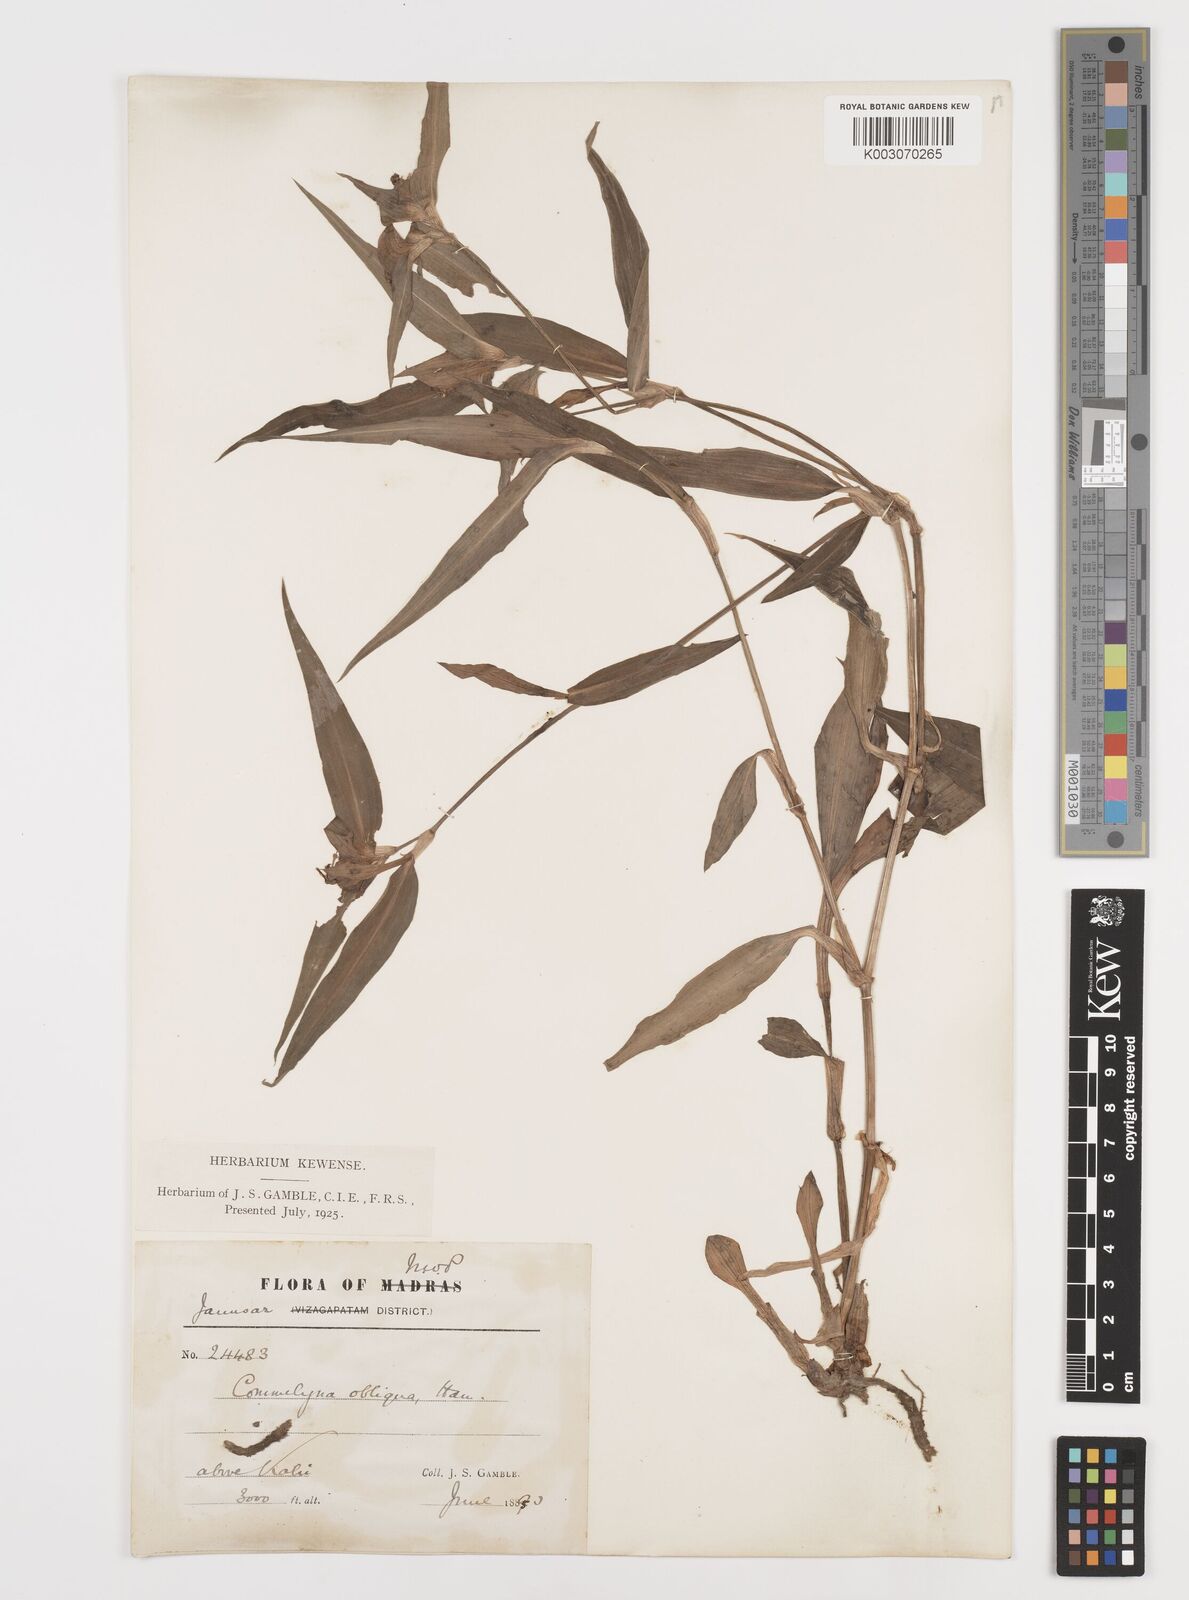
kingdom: Plantae
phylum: Tracheophyta
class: Liliopsida
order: Commelinales
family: Commelinaceae
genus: Commelina
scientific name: Commelina paludosa
